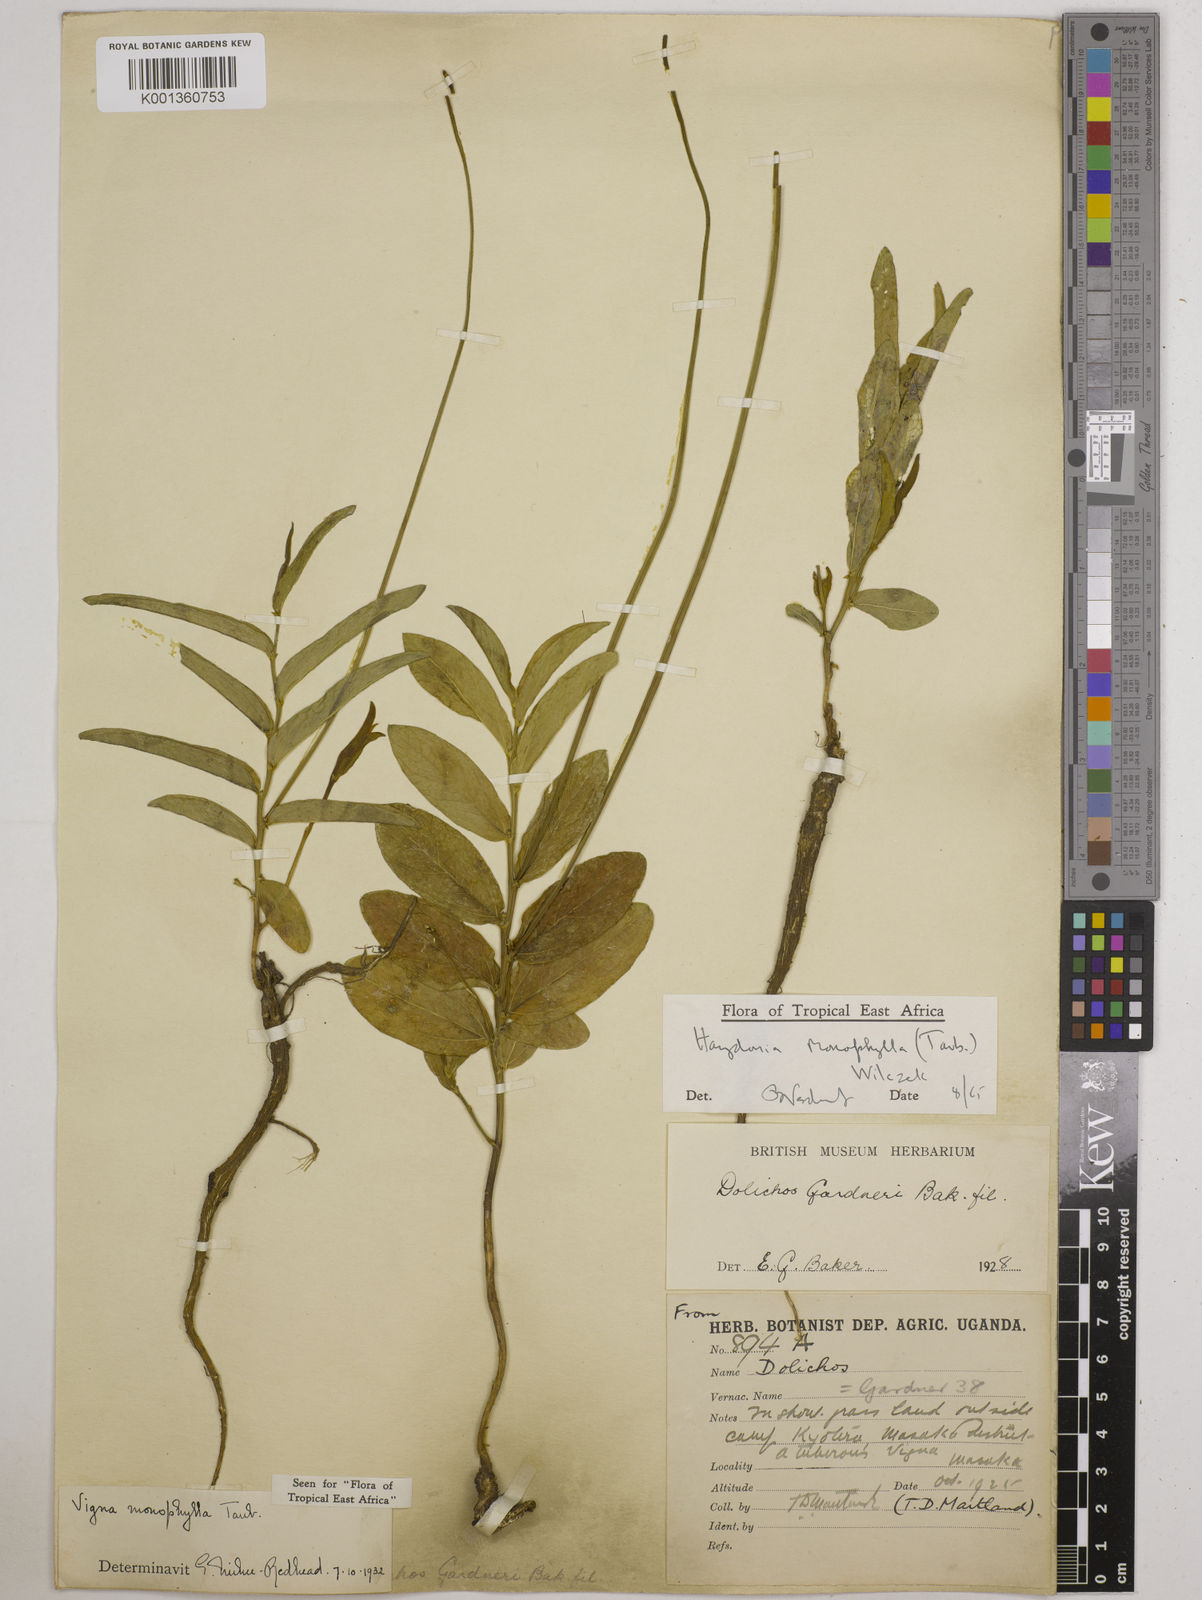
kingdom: Plantae
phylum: Tracheophyta
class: Magnoliopsida
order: Fabales
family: Fabaceae
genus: Vigna
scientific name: Vigna monophylla
